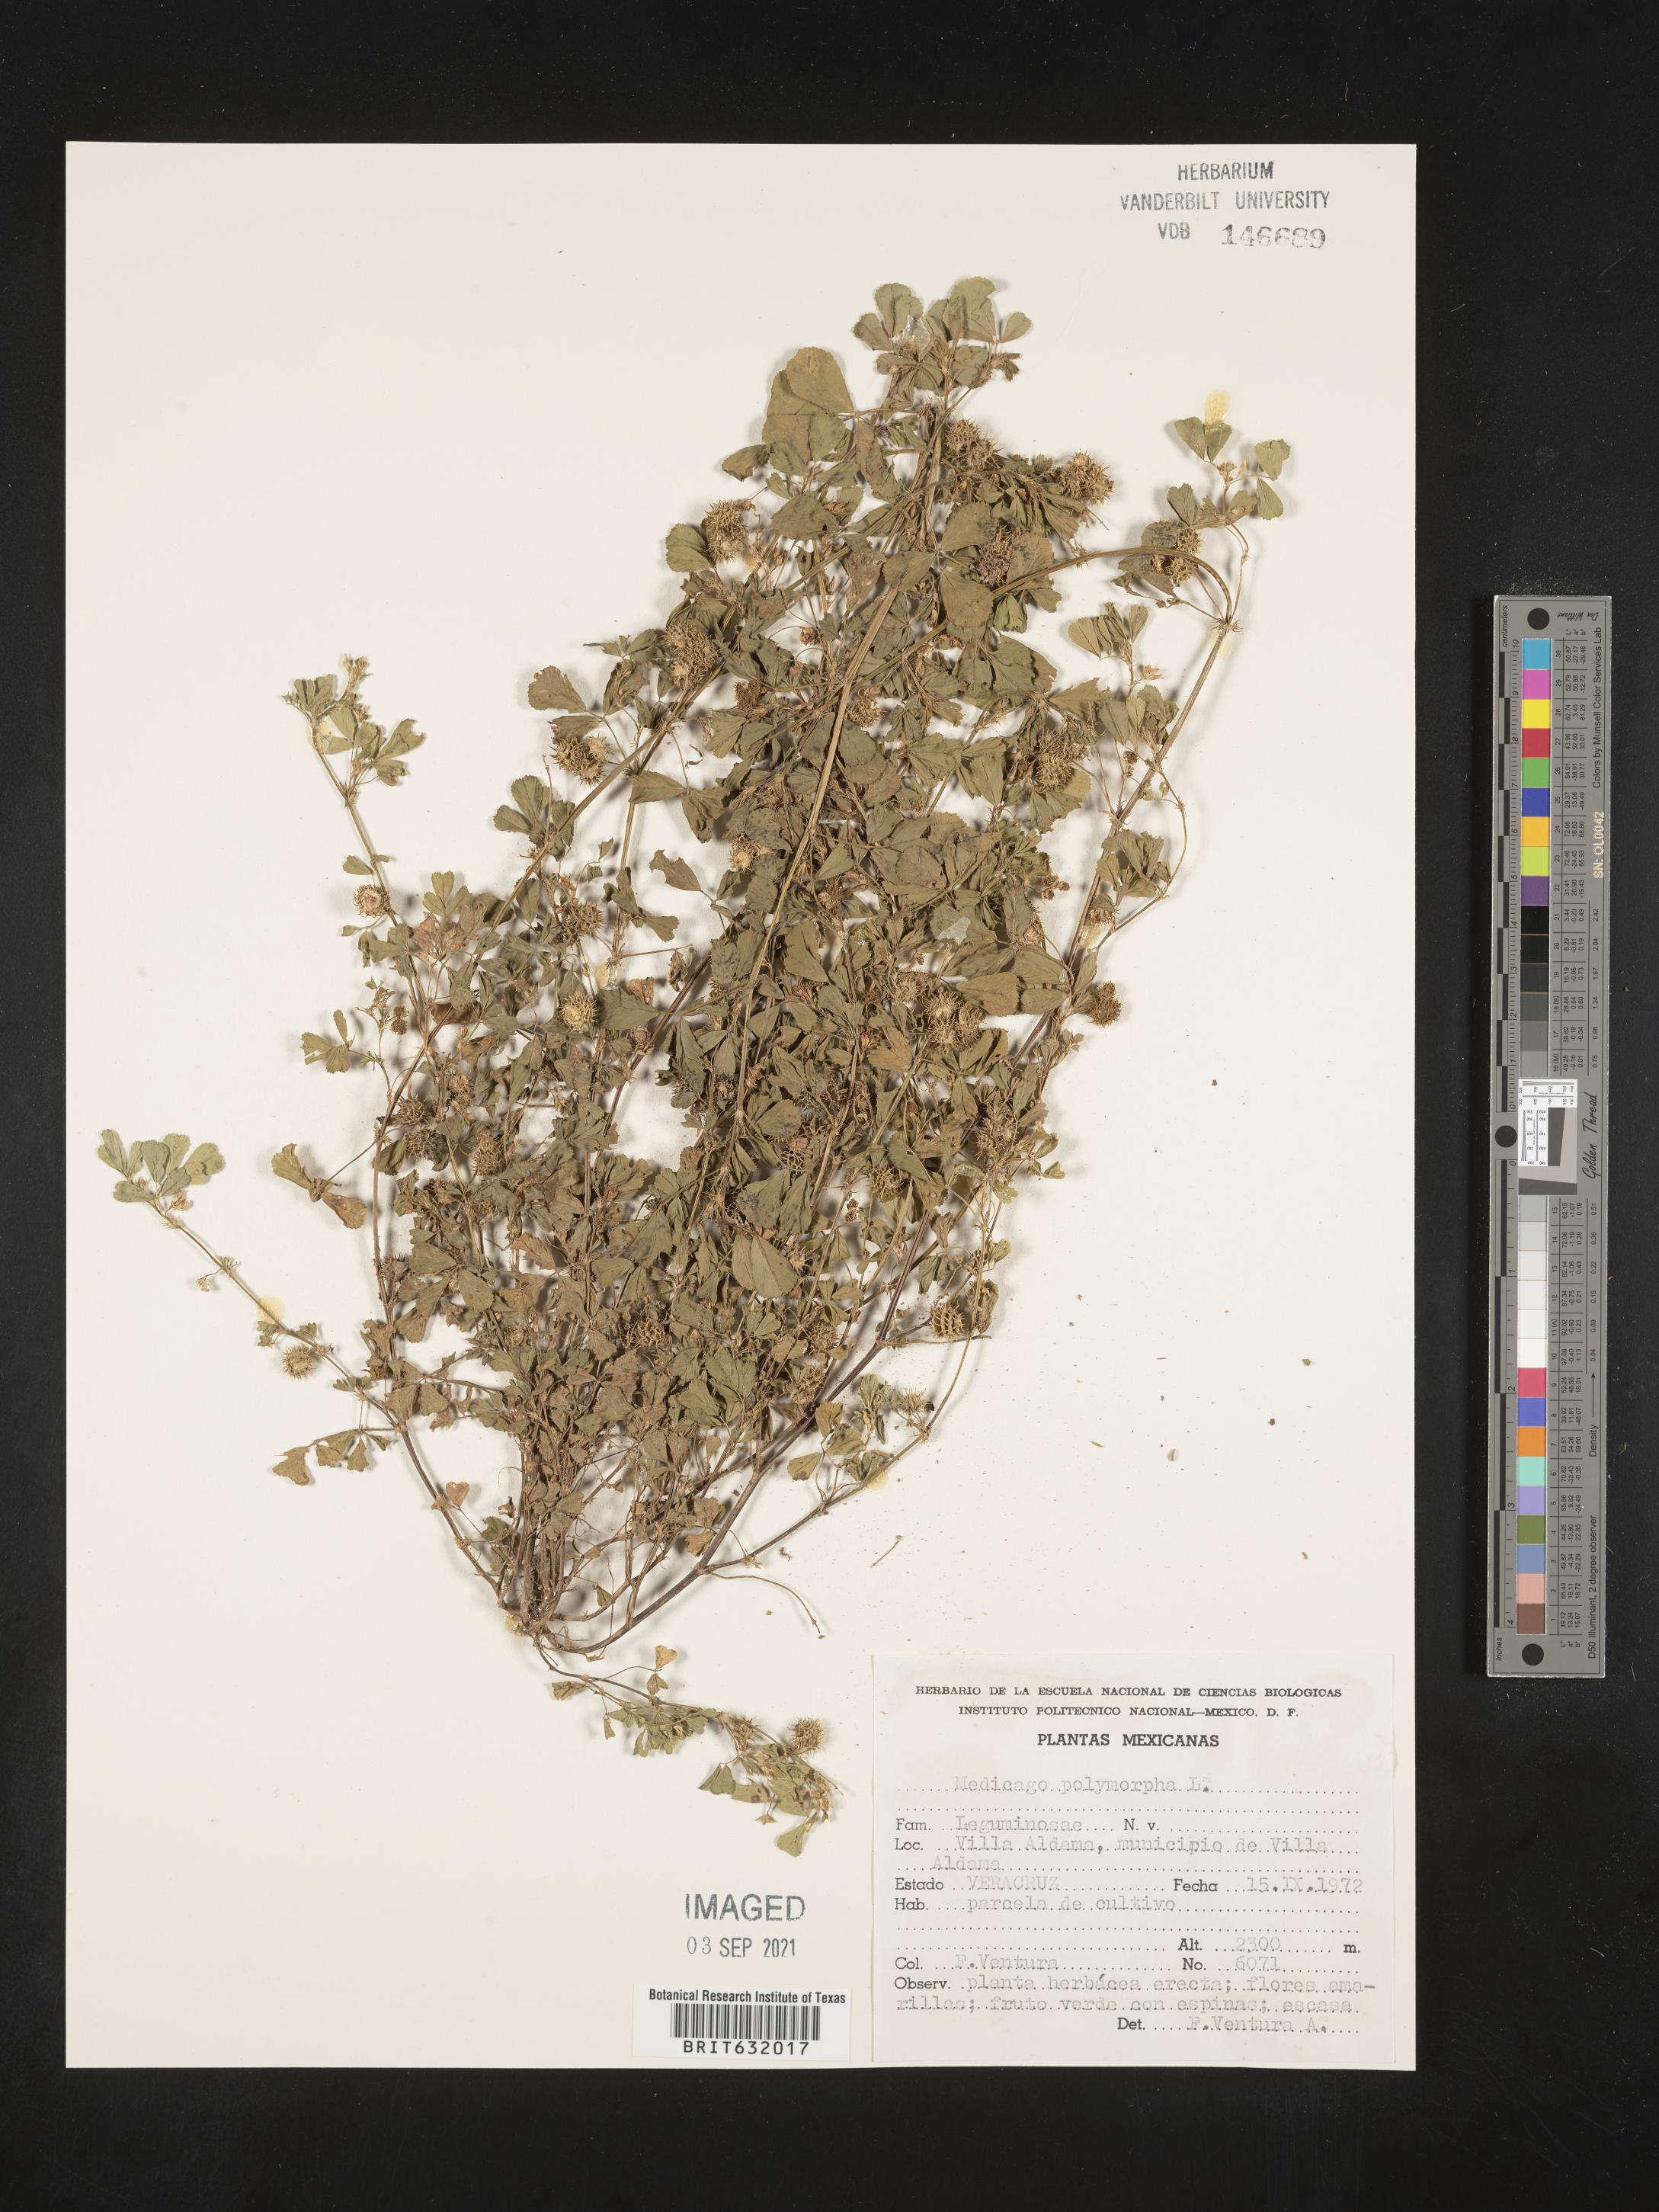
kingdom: Plantae
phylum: Tracheophyta
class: Magnoliopsida
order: Fabales
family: Fabaceae
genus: Medicago
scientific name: Medicago
